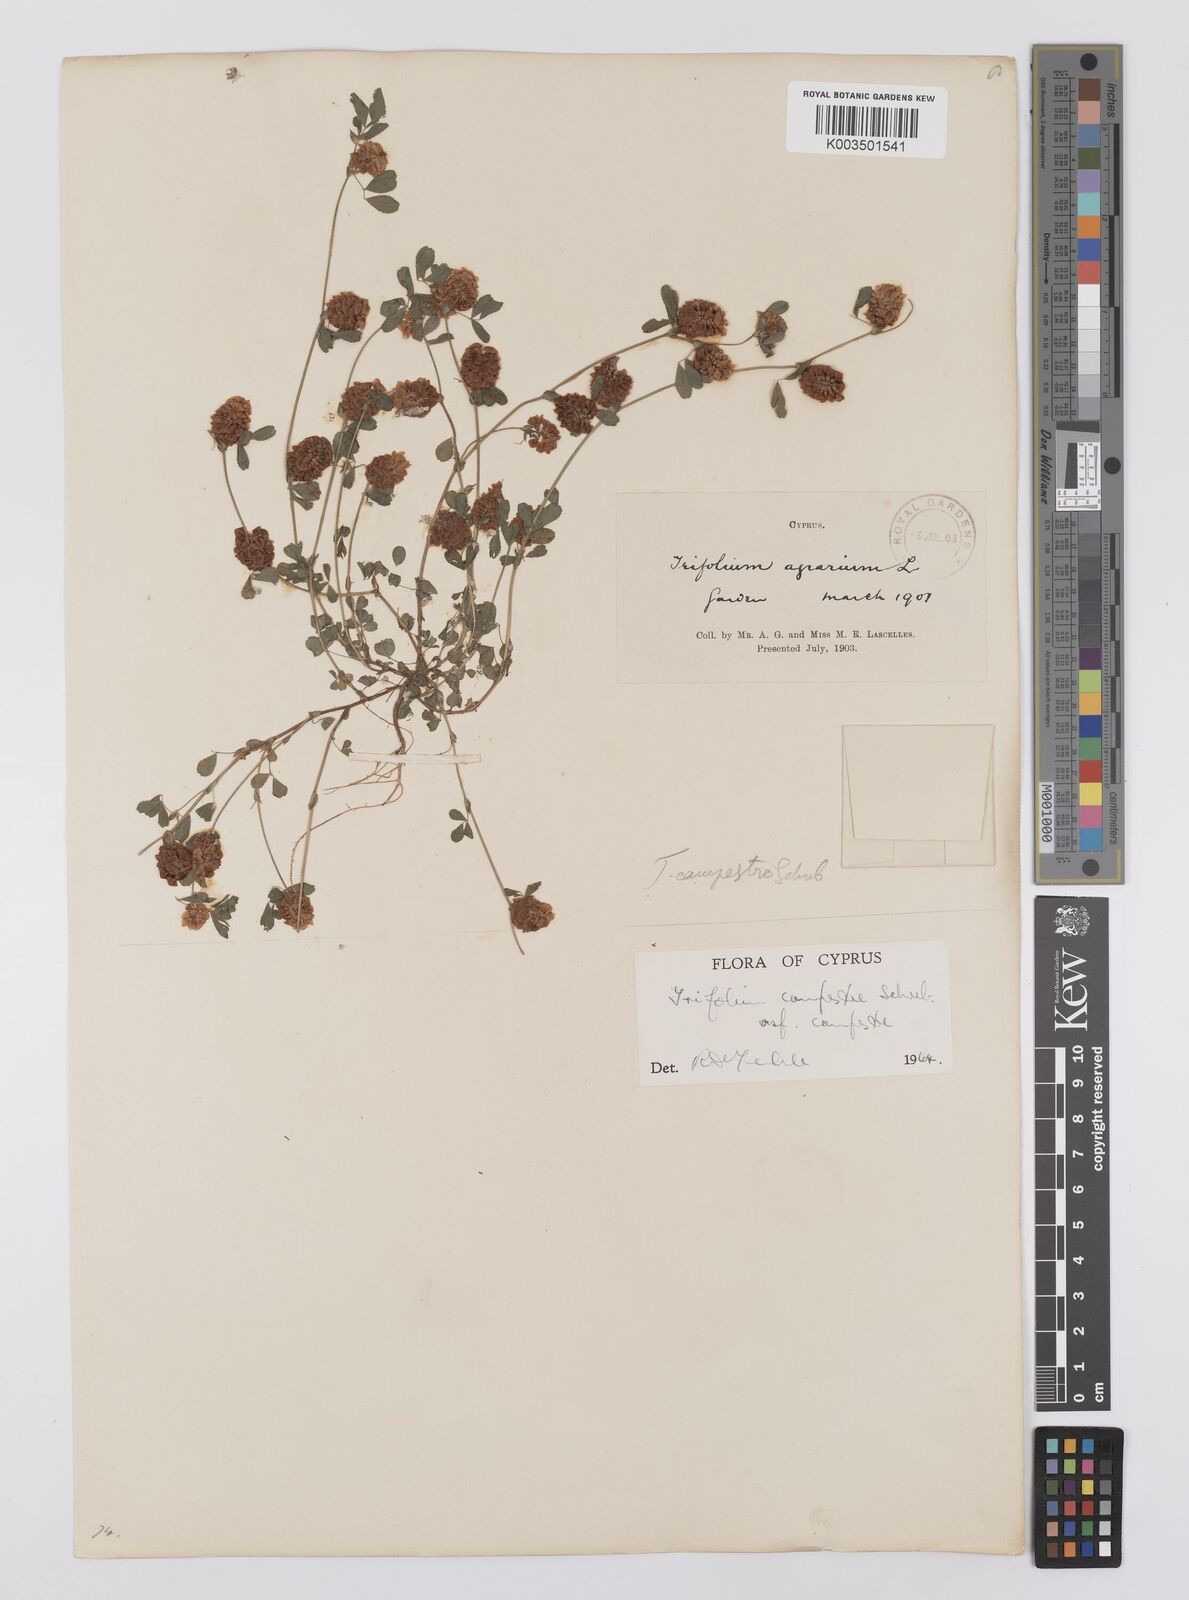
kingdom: Plantae
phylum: Tracheophyta
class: Magnoliopsida
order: Fabales
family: Fabaceae
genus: Trifolium
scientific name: Trifolium campestre
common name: Field clover
